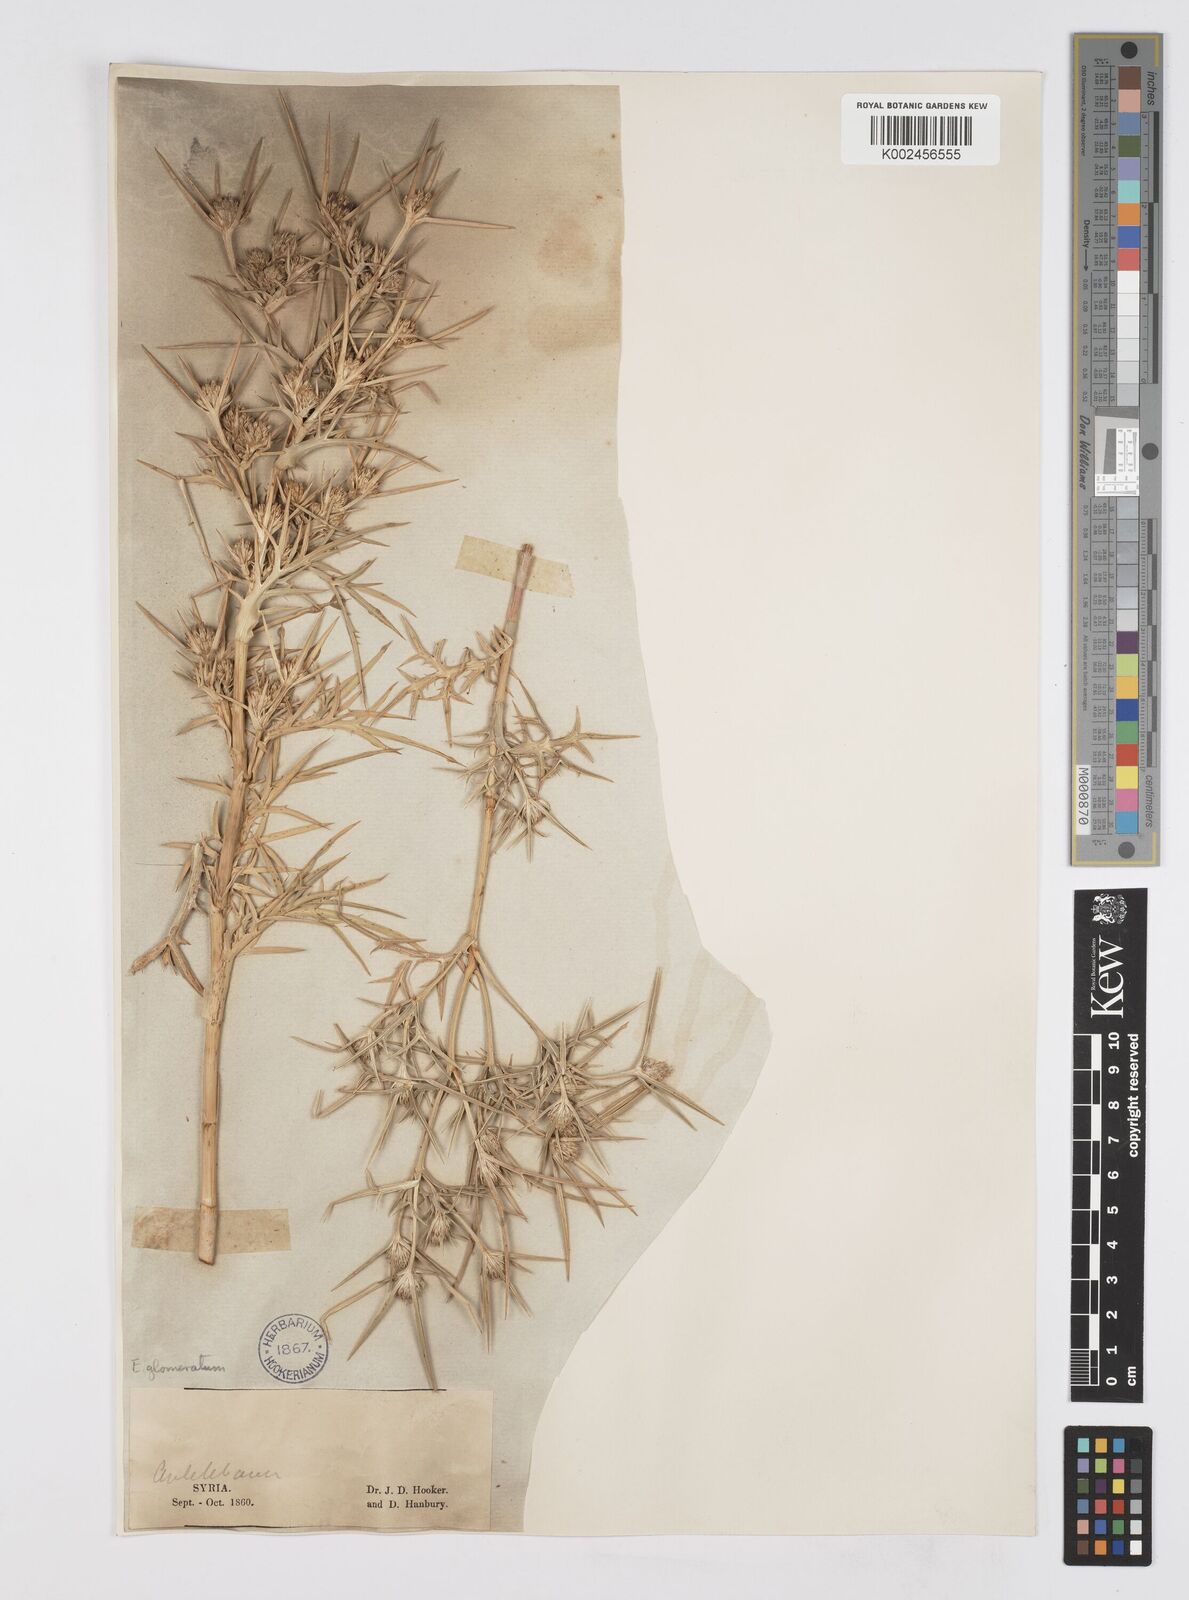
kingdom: Plantae
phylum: Tracheophyta
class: Magnoliopsida
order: Apiales
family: Apiaceae
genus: Eryngium
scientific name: Eryngium glomeratum
